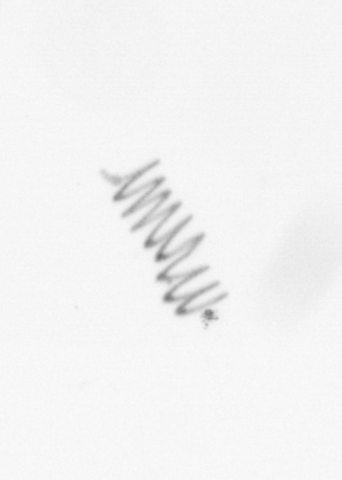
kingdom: Chromista
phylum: Ochrophyta
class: Bacillariophyceae
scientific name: Bacillariophyceae
